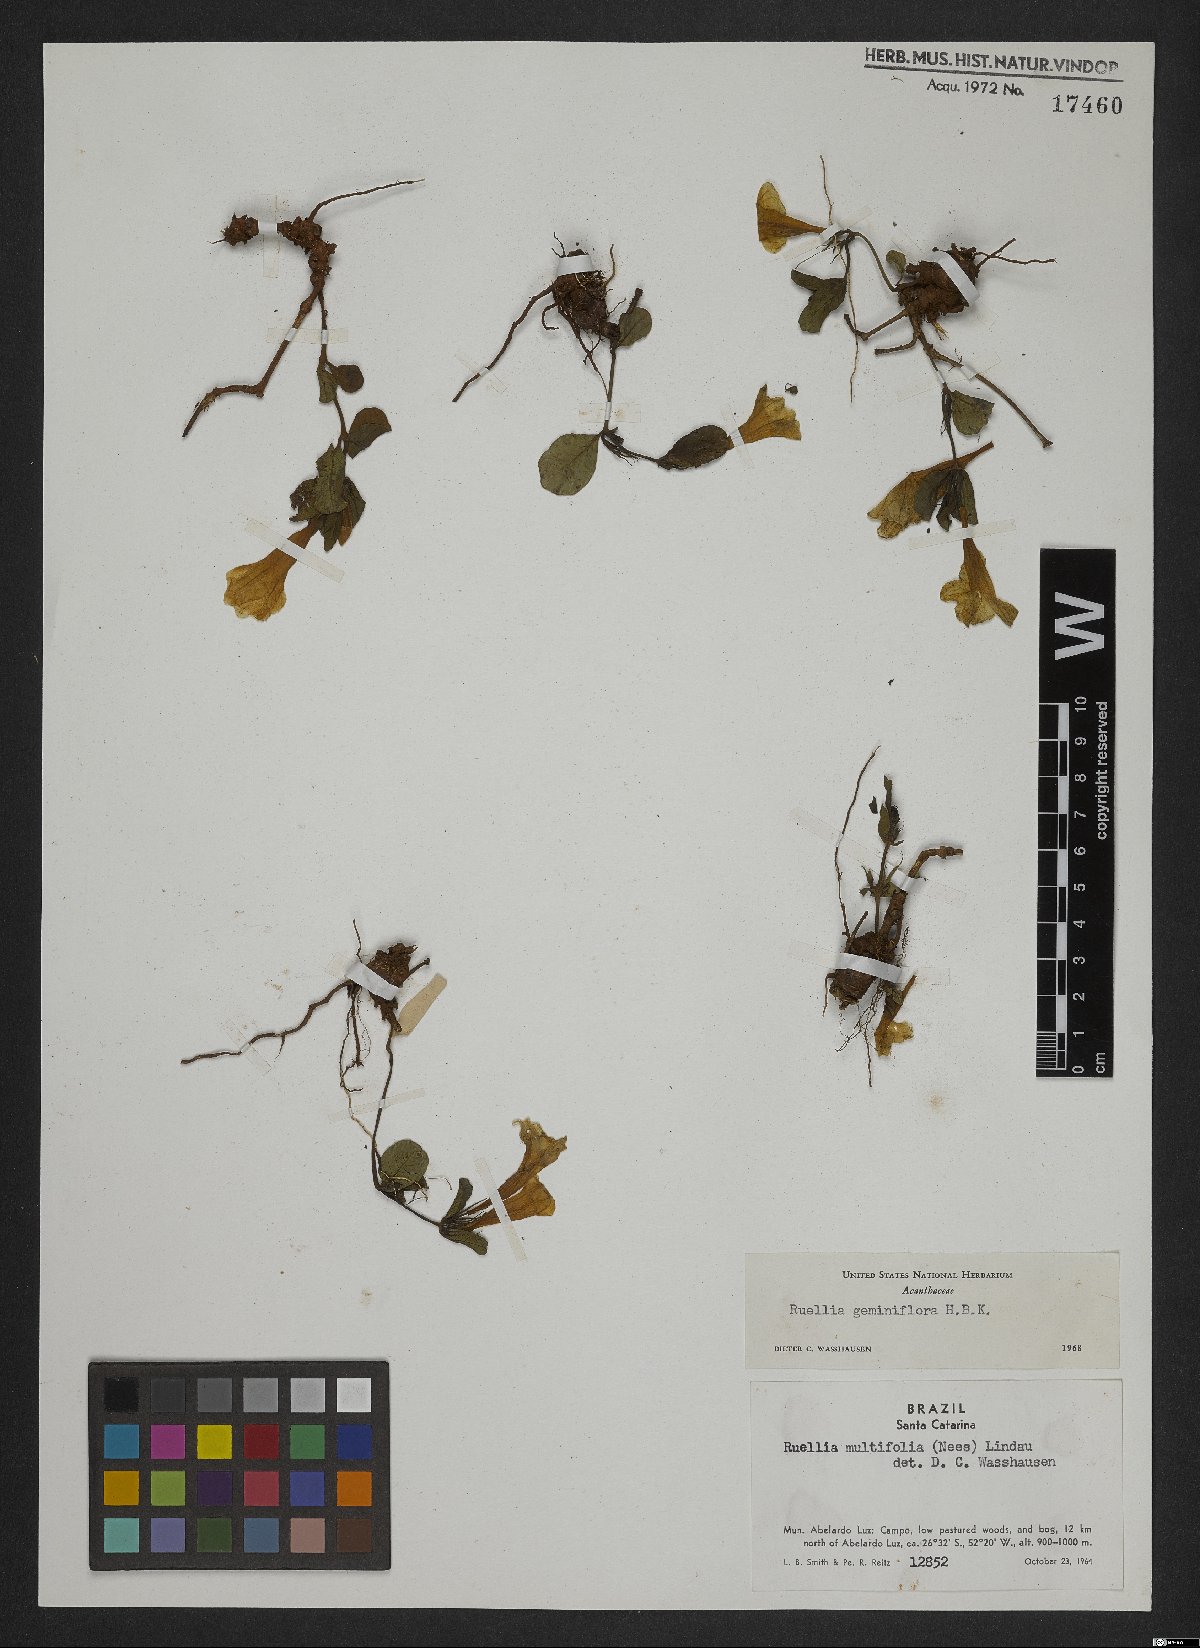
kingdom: Plantae
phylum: Tracheophyta
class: Magnoliopsida
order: Lamiales
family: Acanthaceae
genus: Ruellia
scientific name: Ruellia geminiflora
